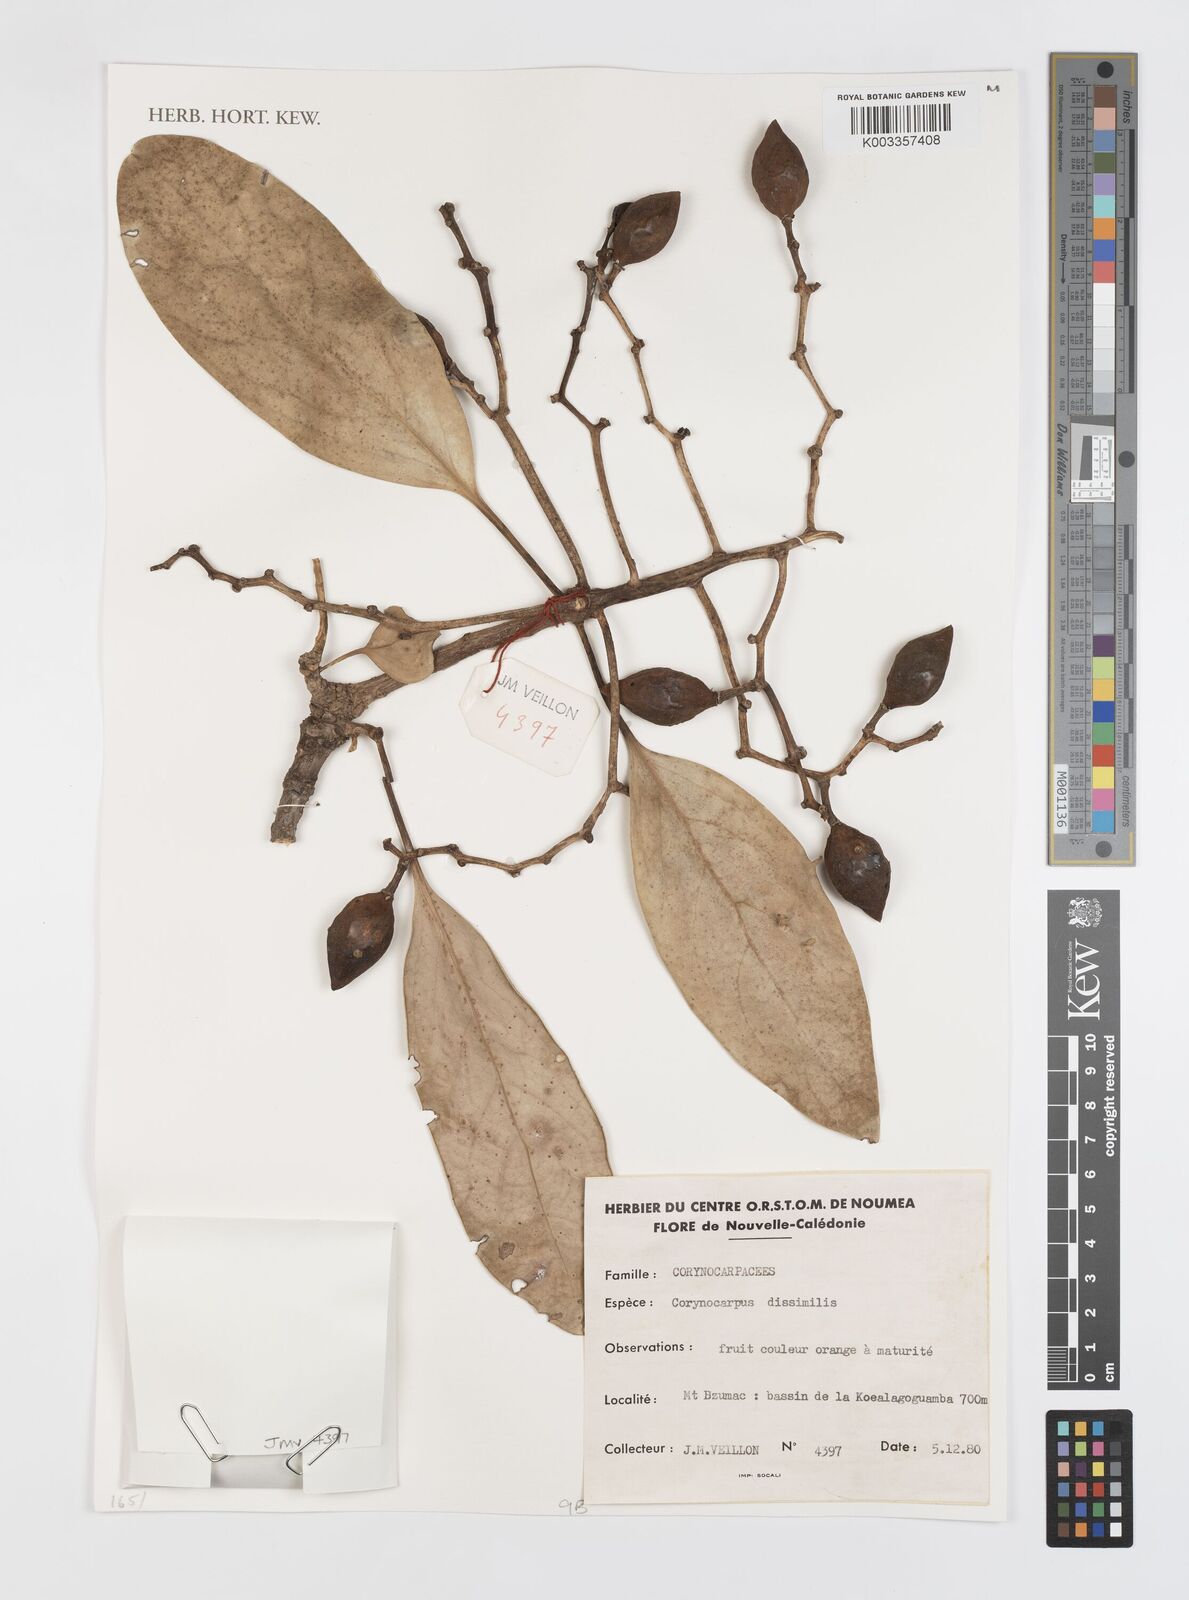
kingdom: Plantae
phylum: Tracheophyta
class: Magnoliopsida
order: Cucurbitales
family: Corynocarpaceae
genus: Corynocarpus
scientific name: Corynocarpus dissimilis
